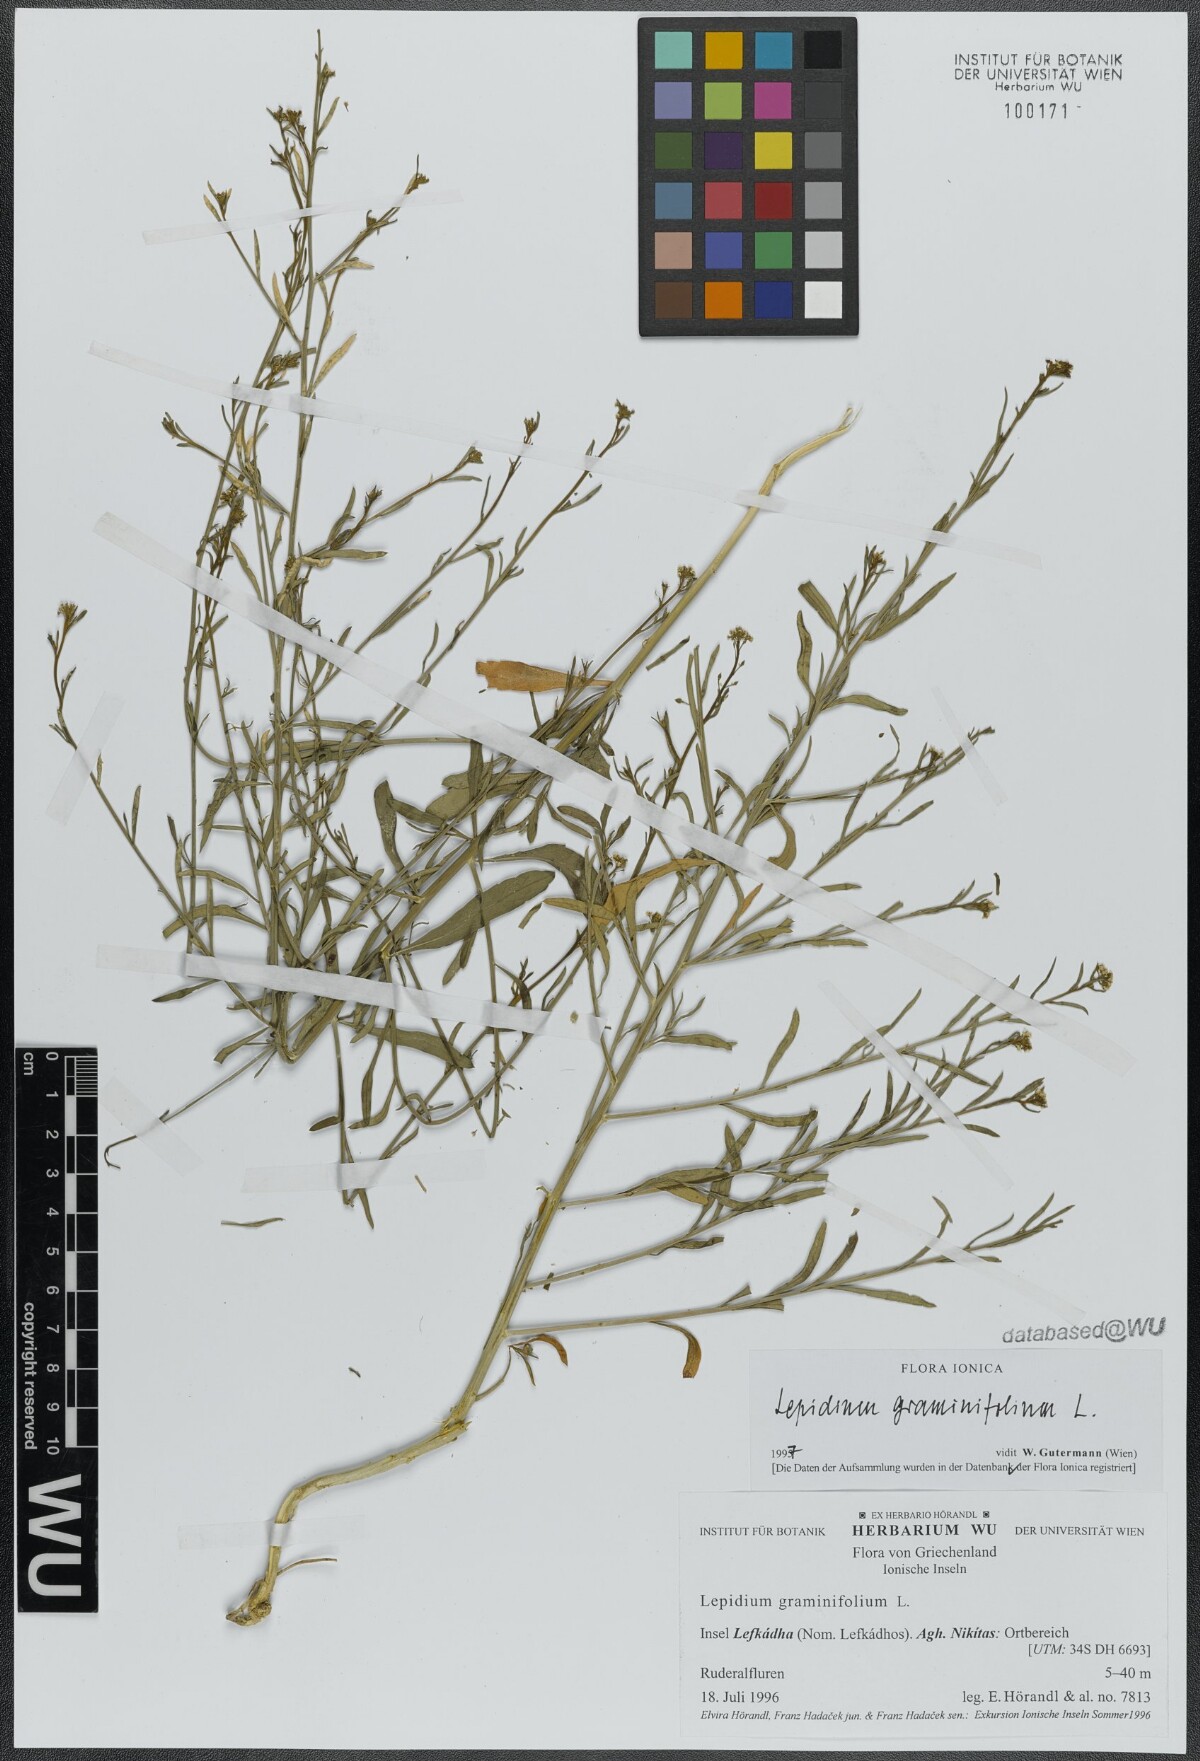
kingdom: Plantae
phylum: Tracheophyta
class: Magnoliopsida
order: Brassicales
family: Brassicaceae
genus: Lepidium
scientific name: Lepidium graminifolium
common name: Tall pepperwort
